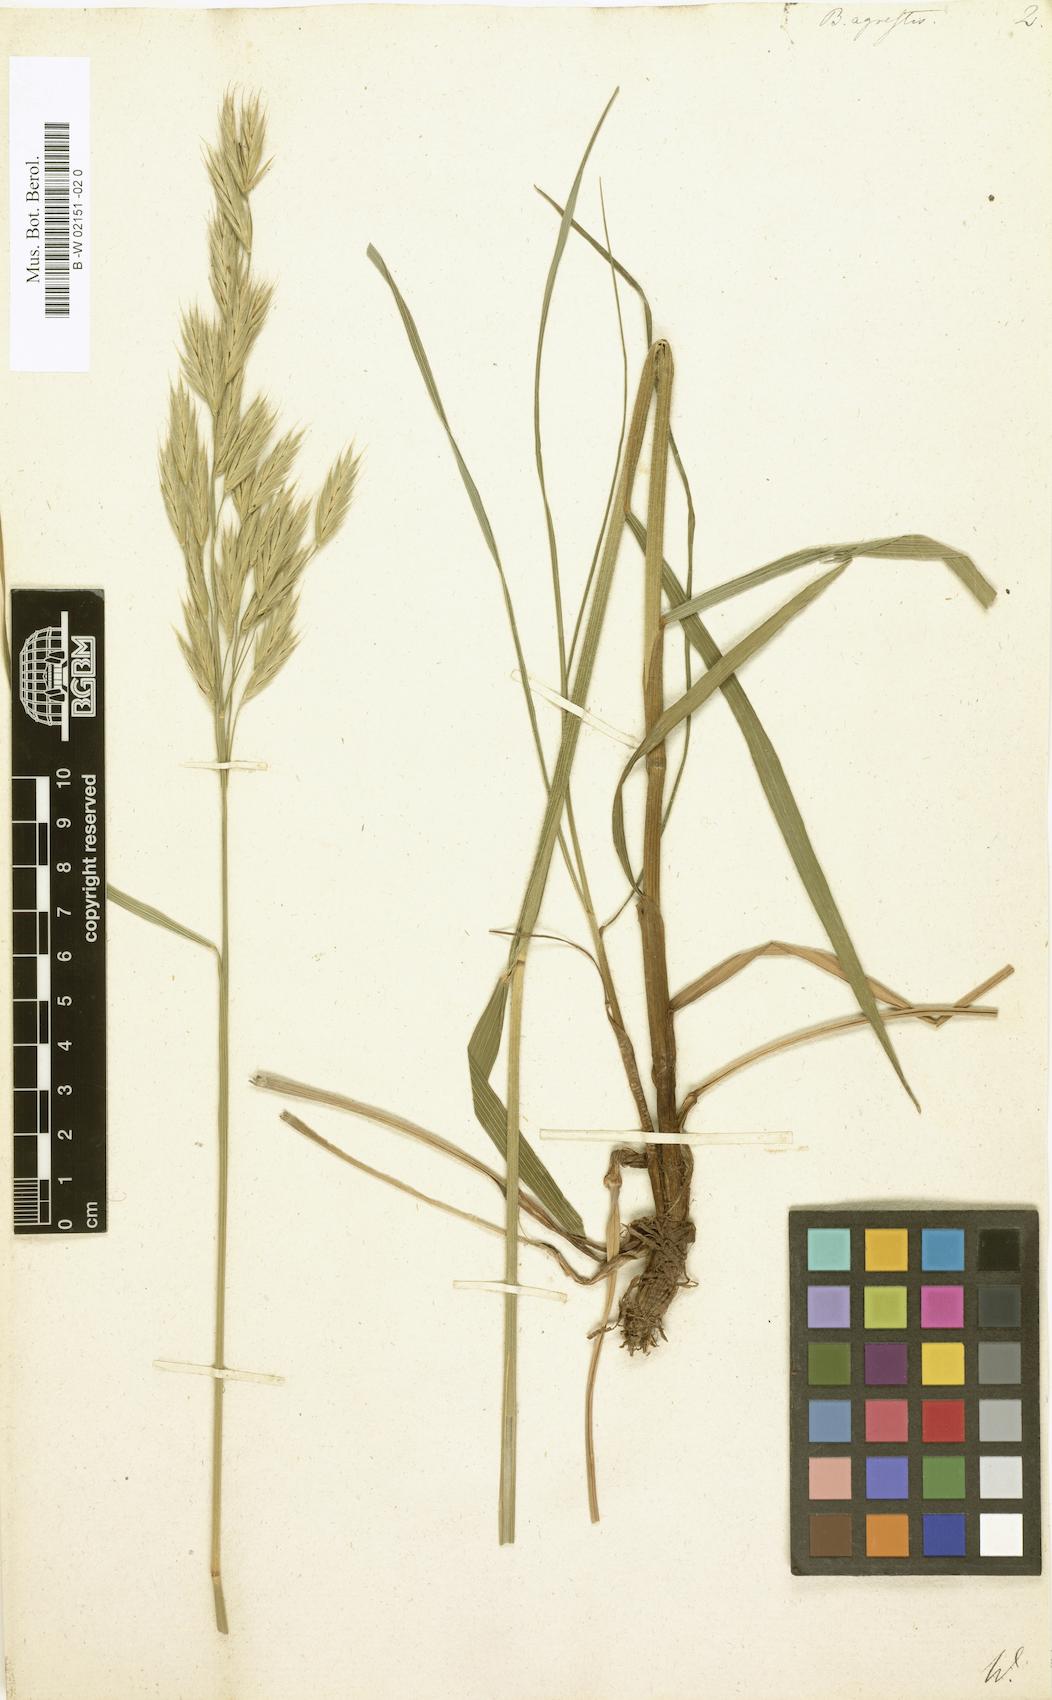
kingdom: Plantae
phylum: Tracheophyta
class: Liliopsida
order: Poales
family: Poaceae
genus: Bromus
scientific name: Bromus erectus
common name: Erect brome
